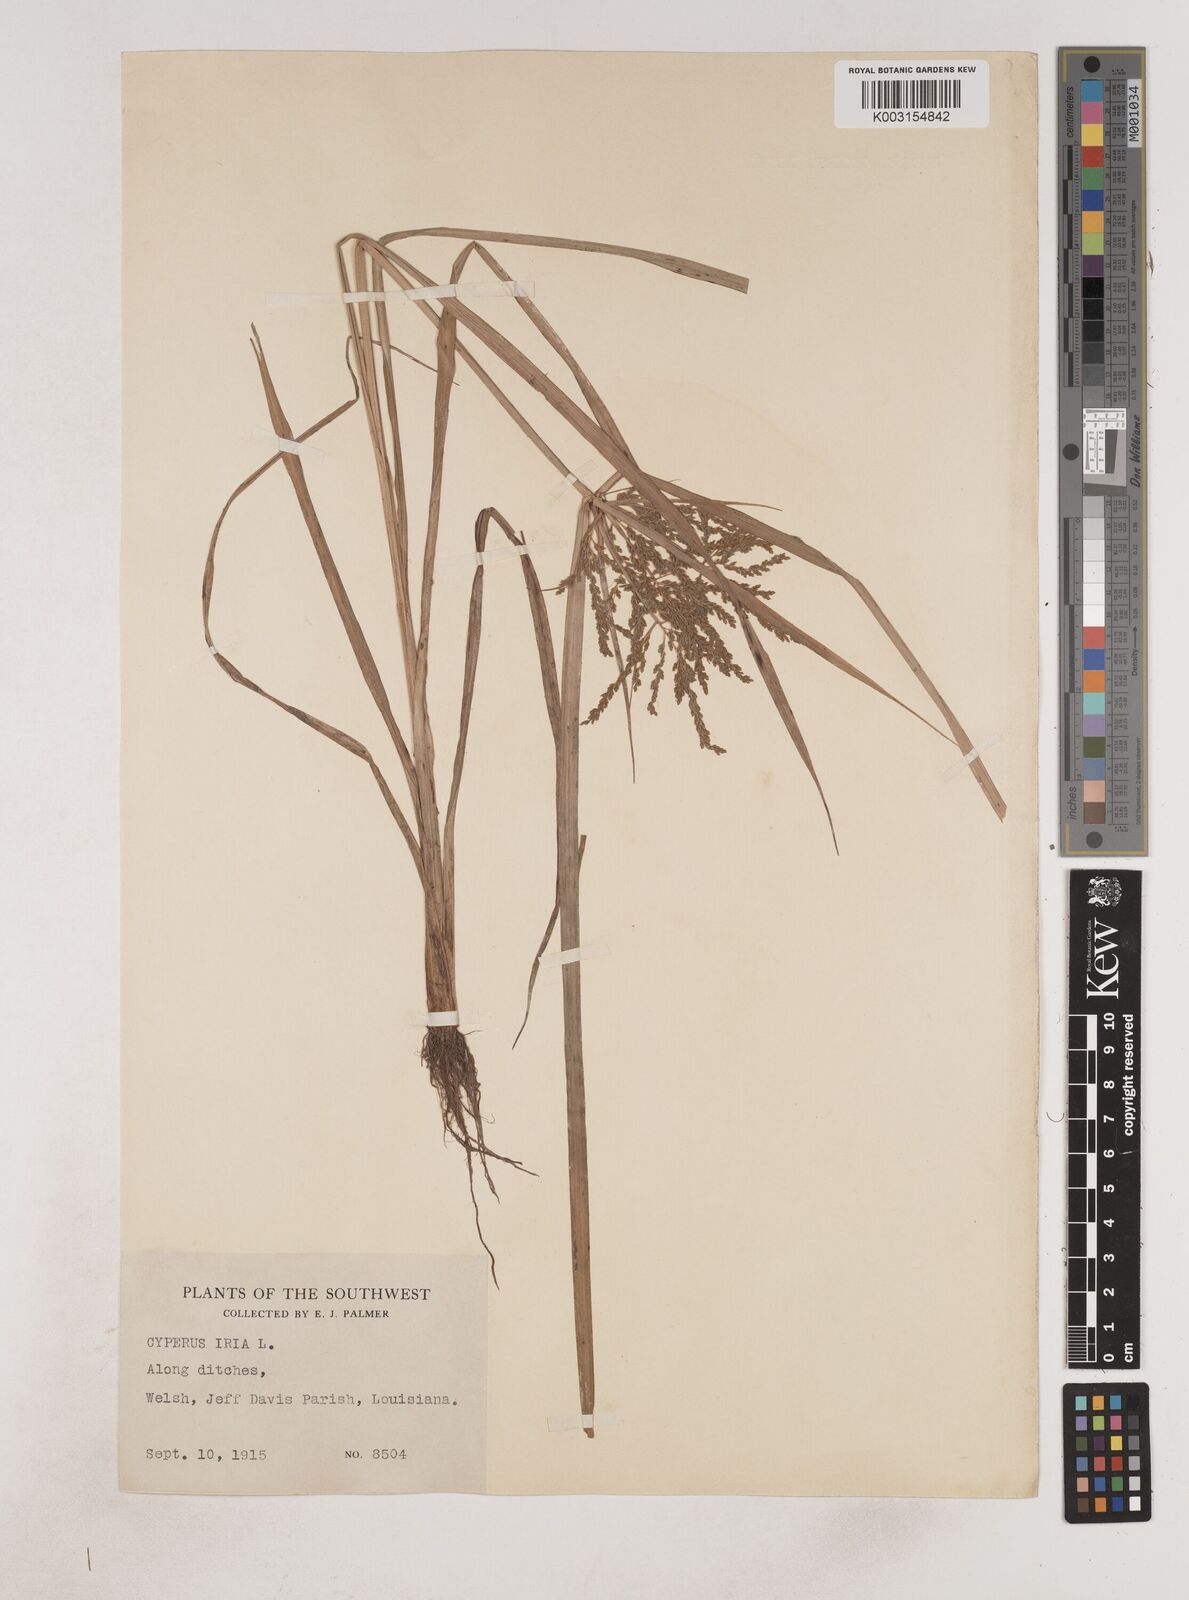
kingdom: Plantae
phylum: Tracheophyta
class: Liliopsida
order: Poales
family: Cyperaceae
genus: Cyperus
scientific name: Cyperus iria
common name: Ricefield flatsedge
